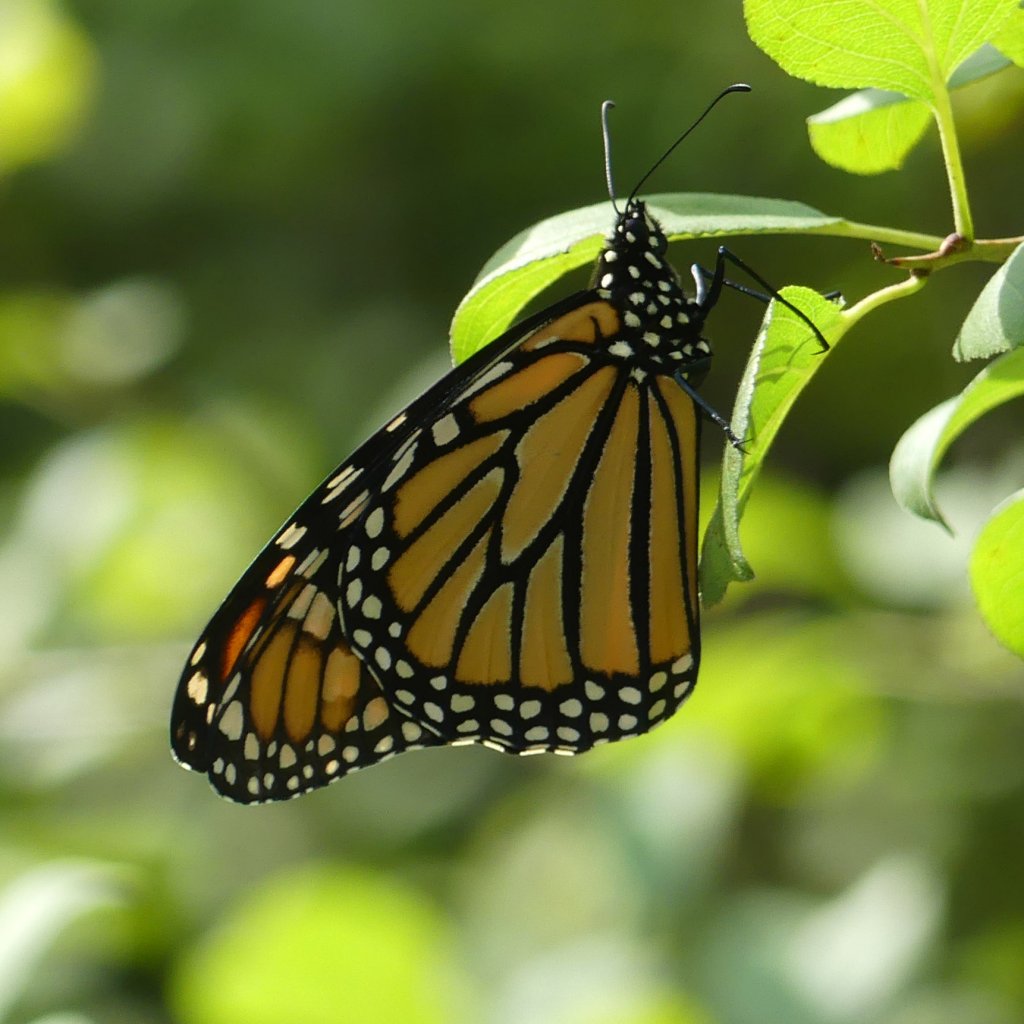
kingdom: Animalia
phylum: Arthropoda
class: Insecta
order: Lepidoptera
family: Nymphalidae
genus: Danaus
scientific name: Danaus plexippus
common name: Monarch
